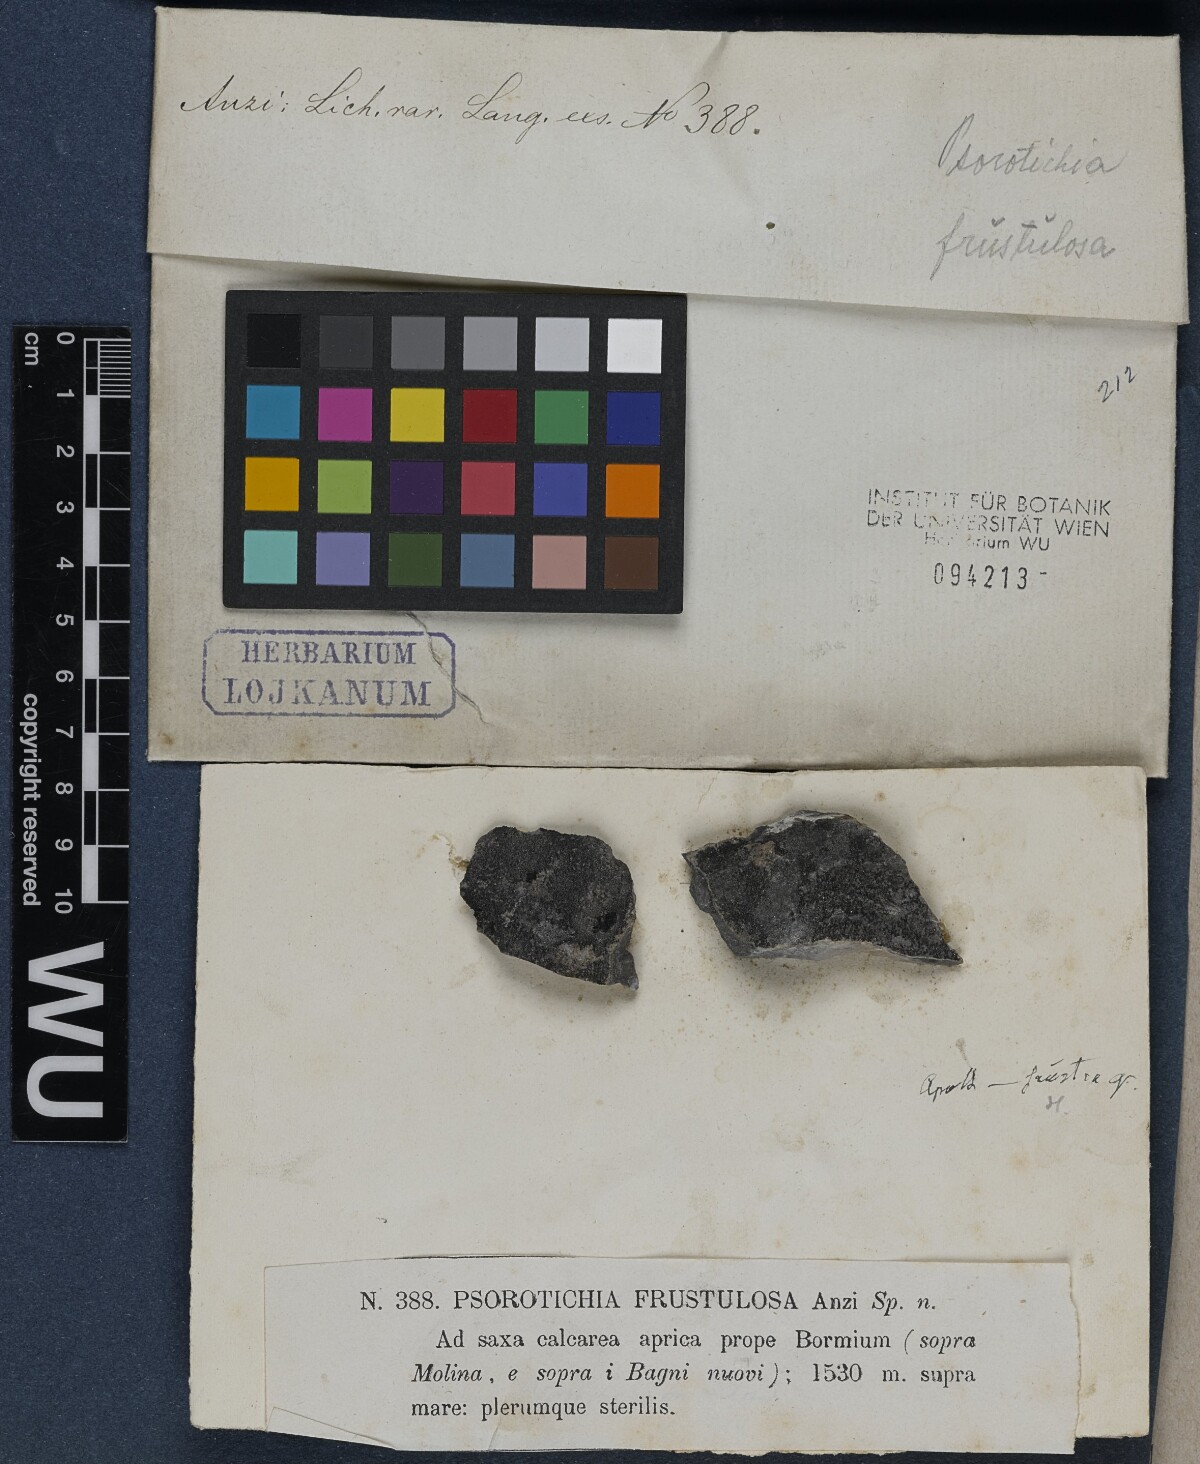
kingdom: Fungi
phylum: Ascomycota
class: Lichinomycetes
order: Lichinales
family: Lichinaceae
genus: Psorotichia
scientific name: Psorotichia frustulosa
